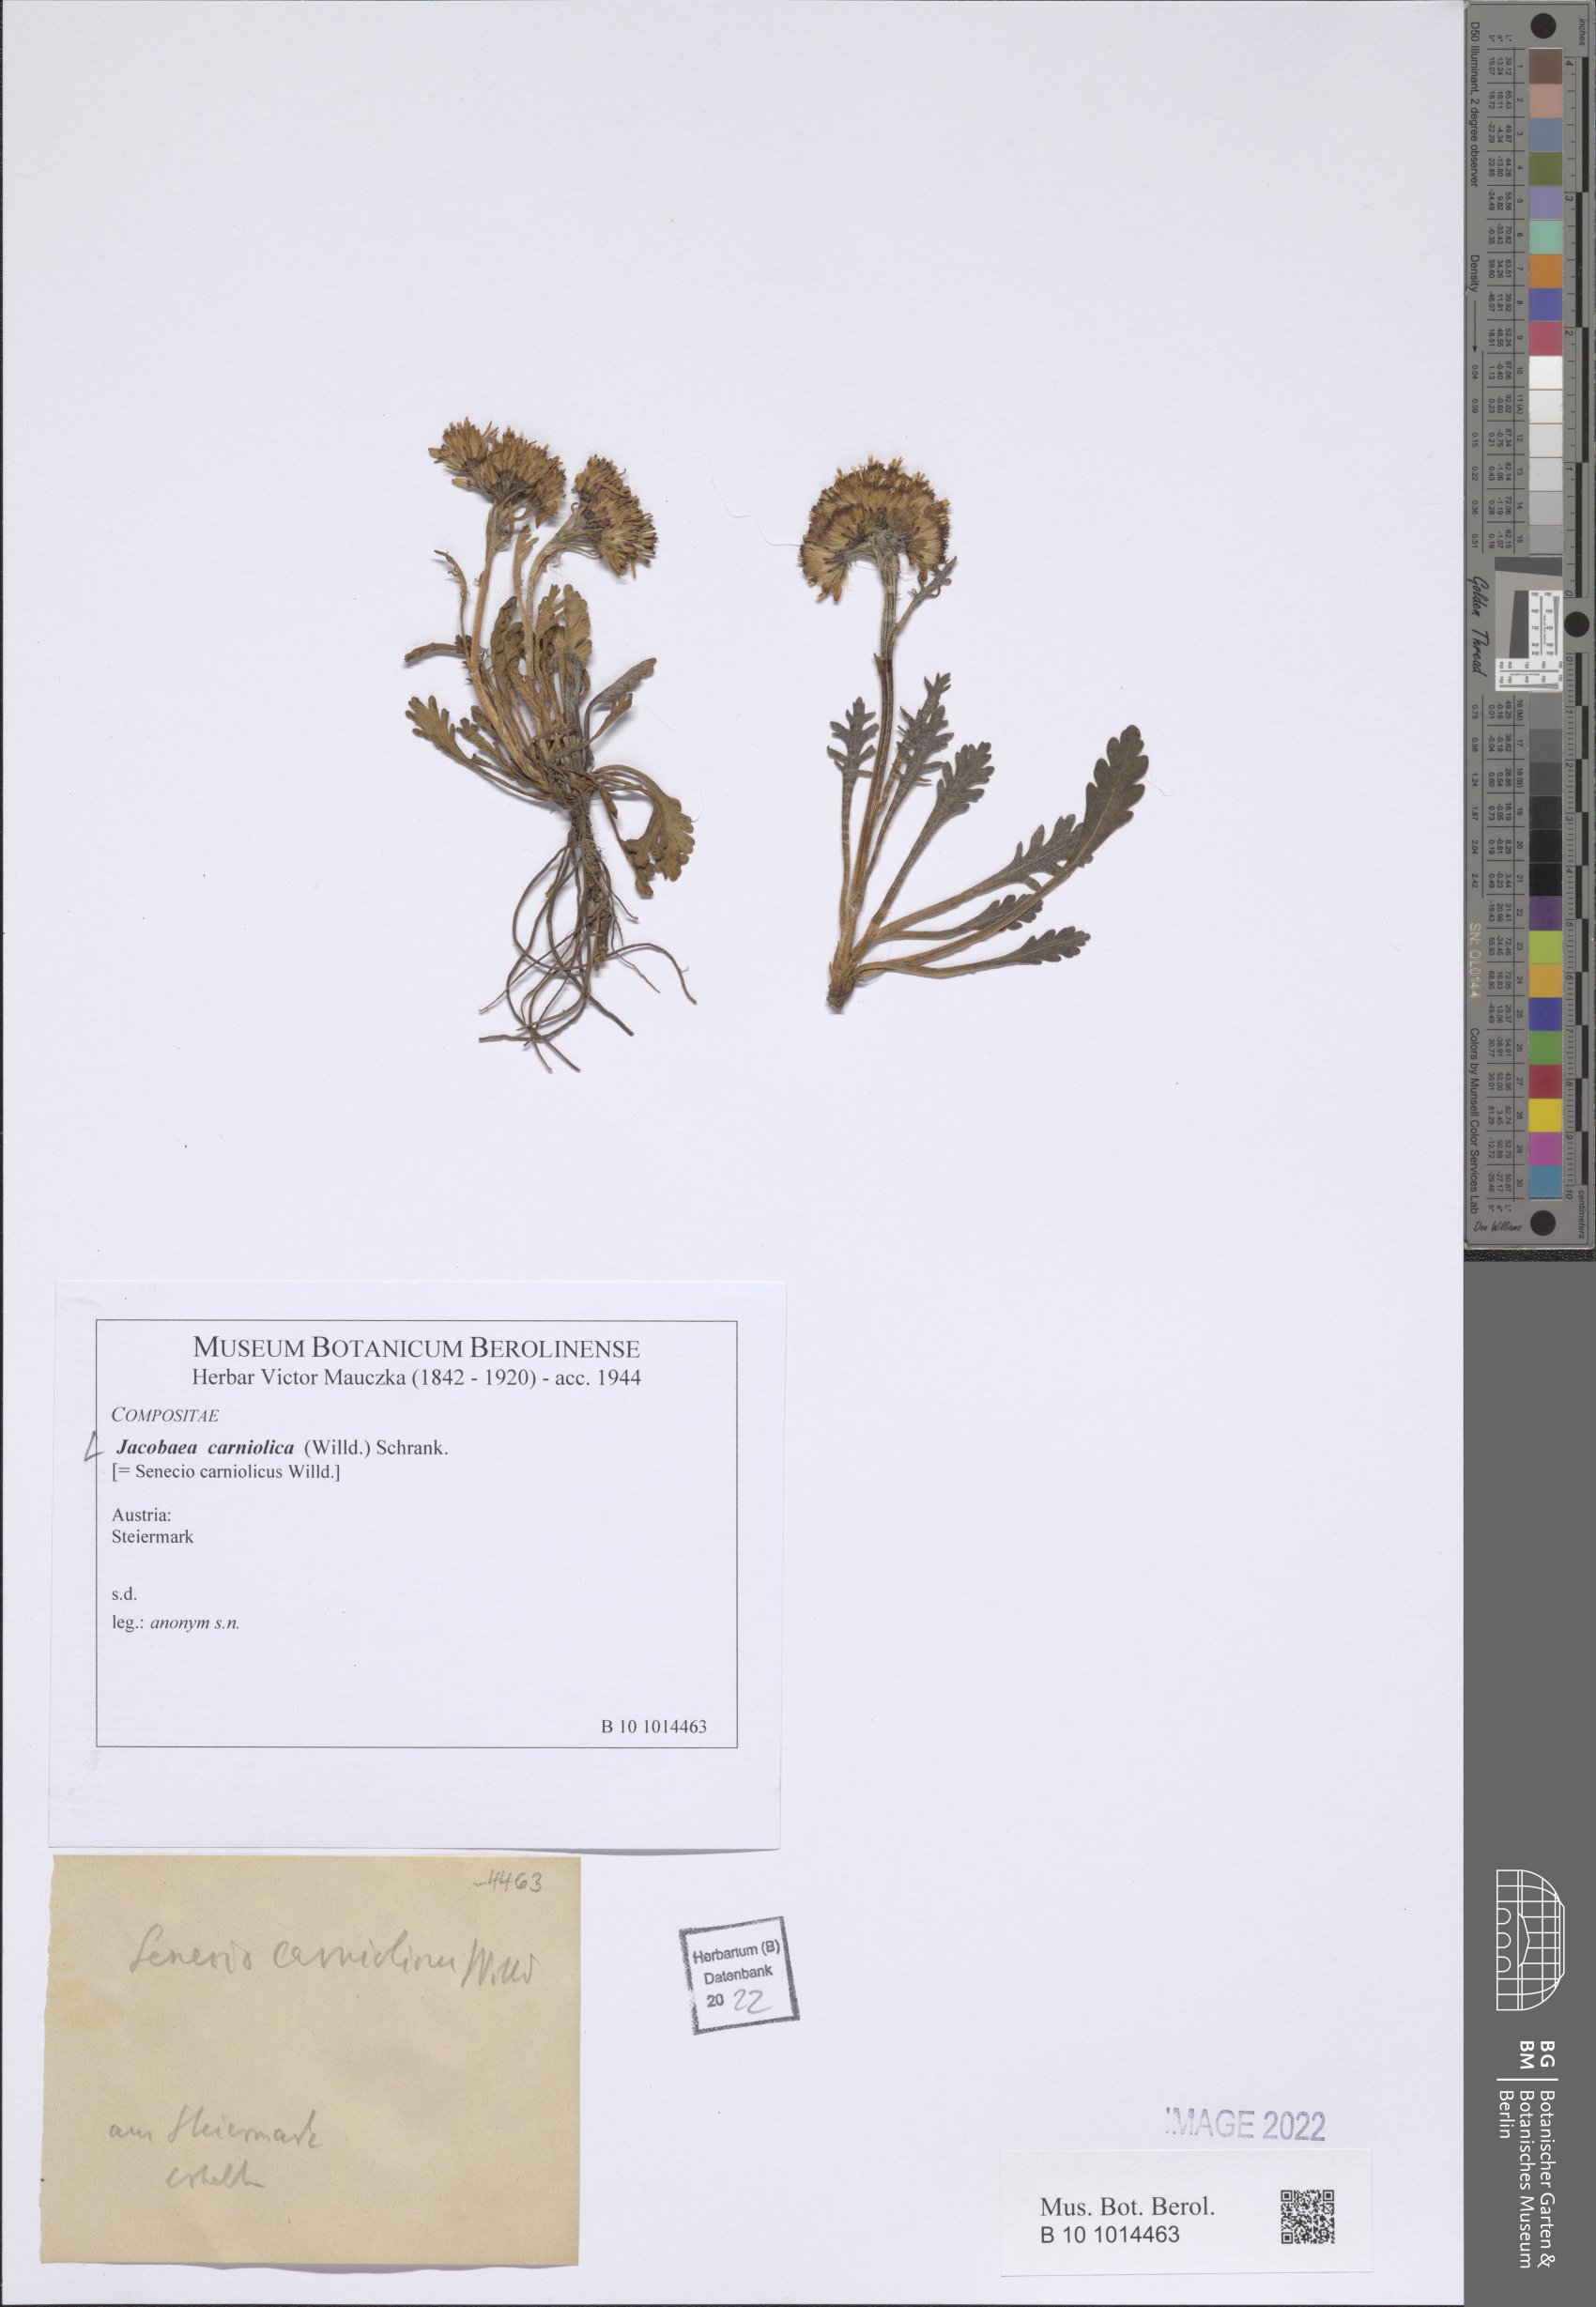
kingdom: Plantae
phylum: Tracheophyta
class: Magnoliopsida
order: Asterales
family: Asteraceae
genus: Jacobaea
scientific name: Jacobaea carniolica
